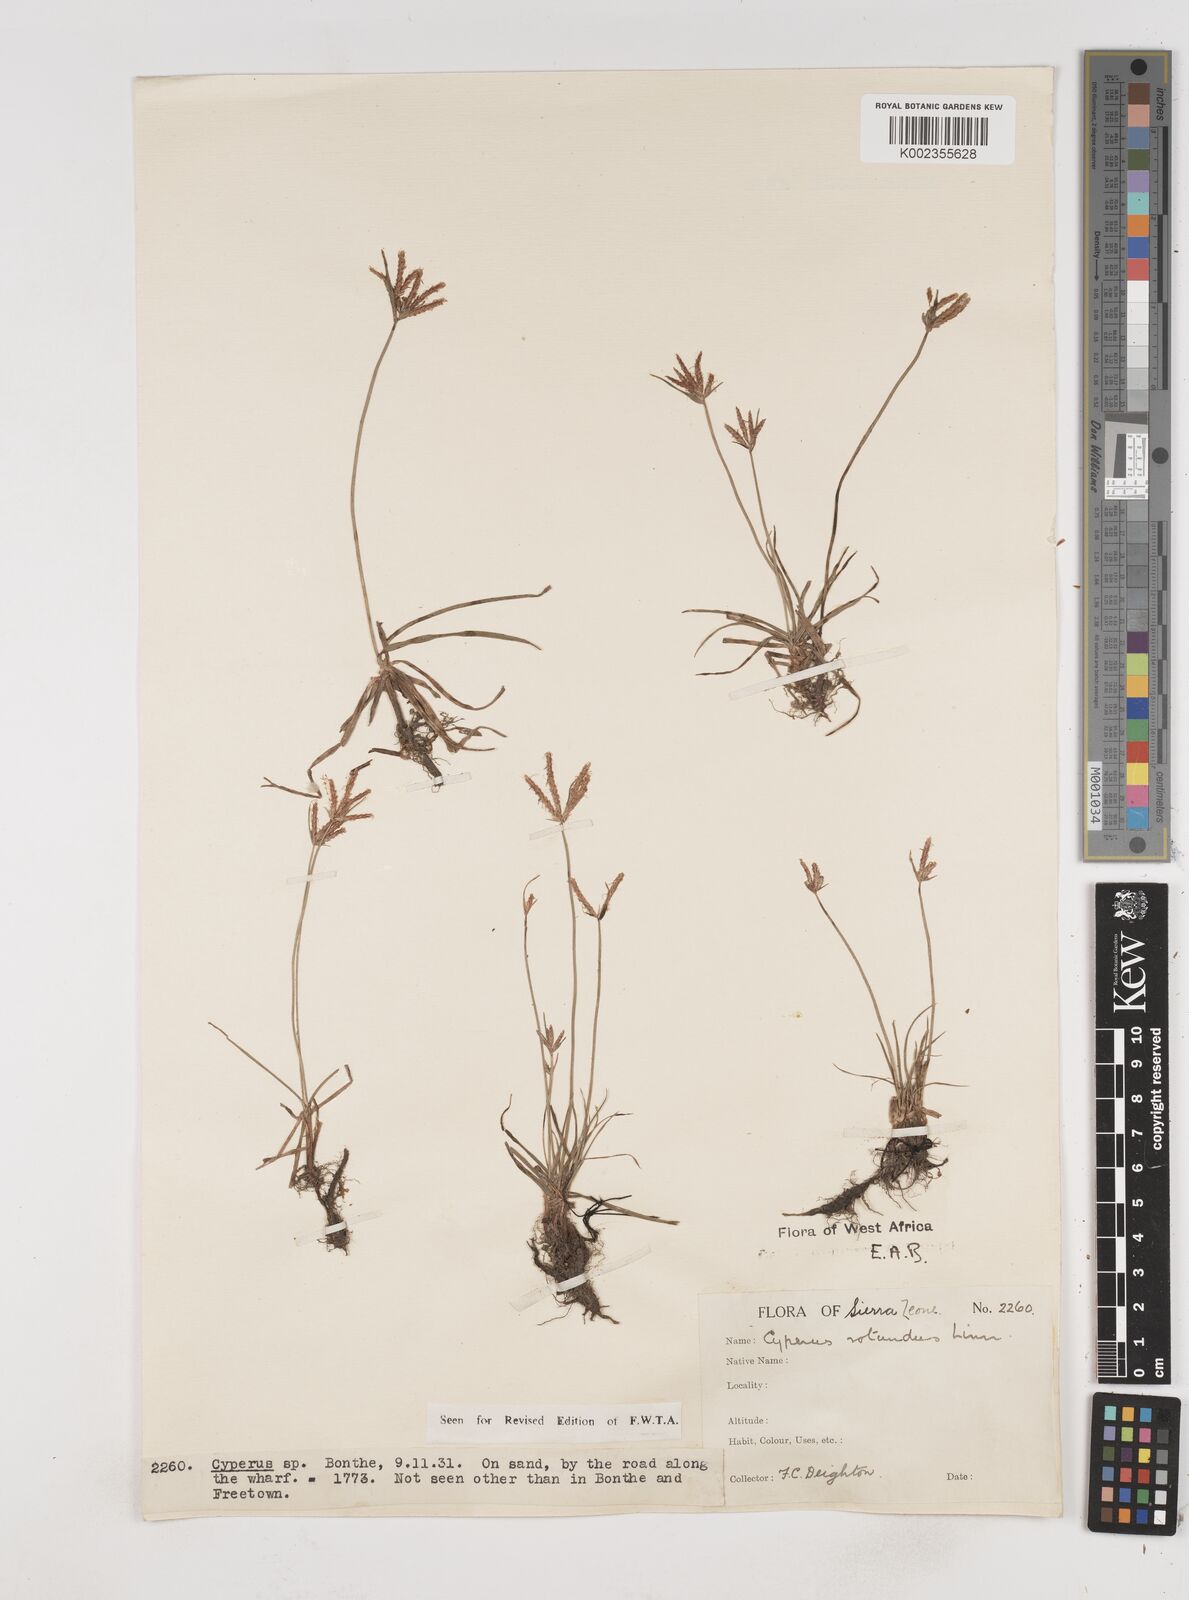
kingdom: Plantae
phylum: Tracheophyta
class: Liliopsida
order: Poales
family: Cyperaceae
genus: Cyperus
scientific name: Cyperus rotundus
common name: Nutgrass
